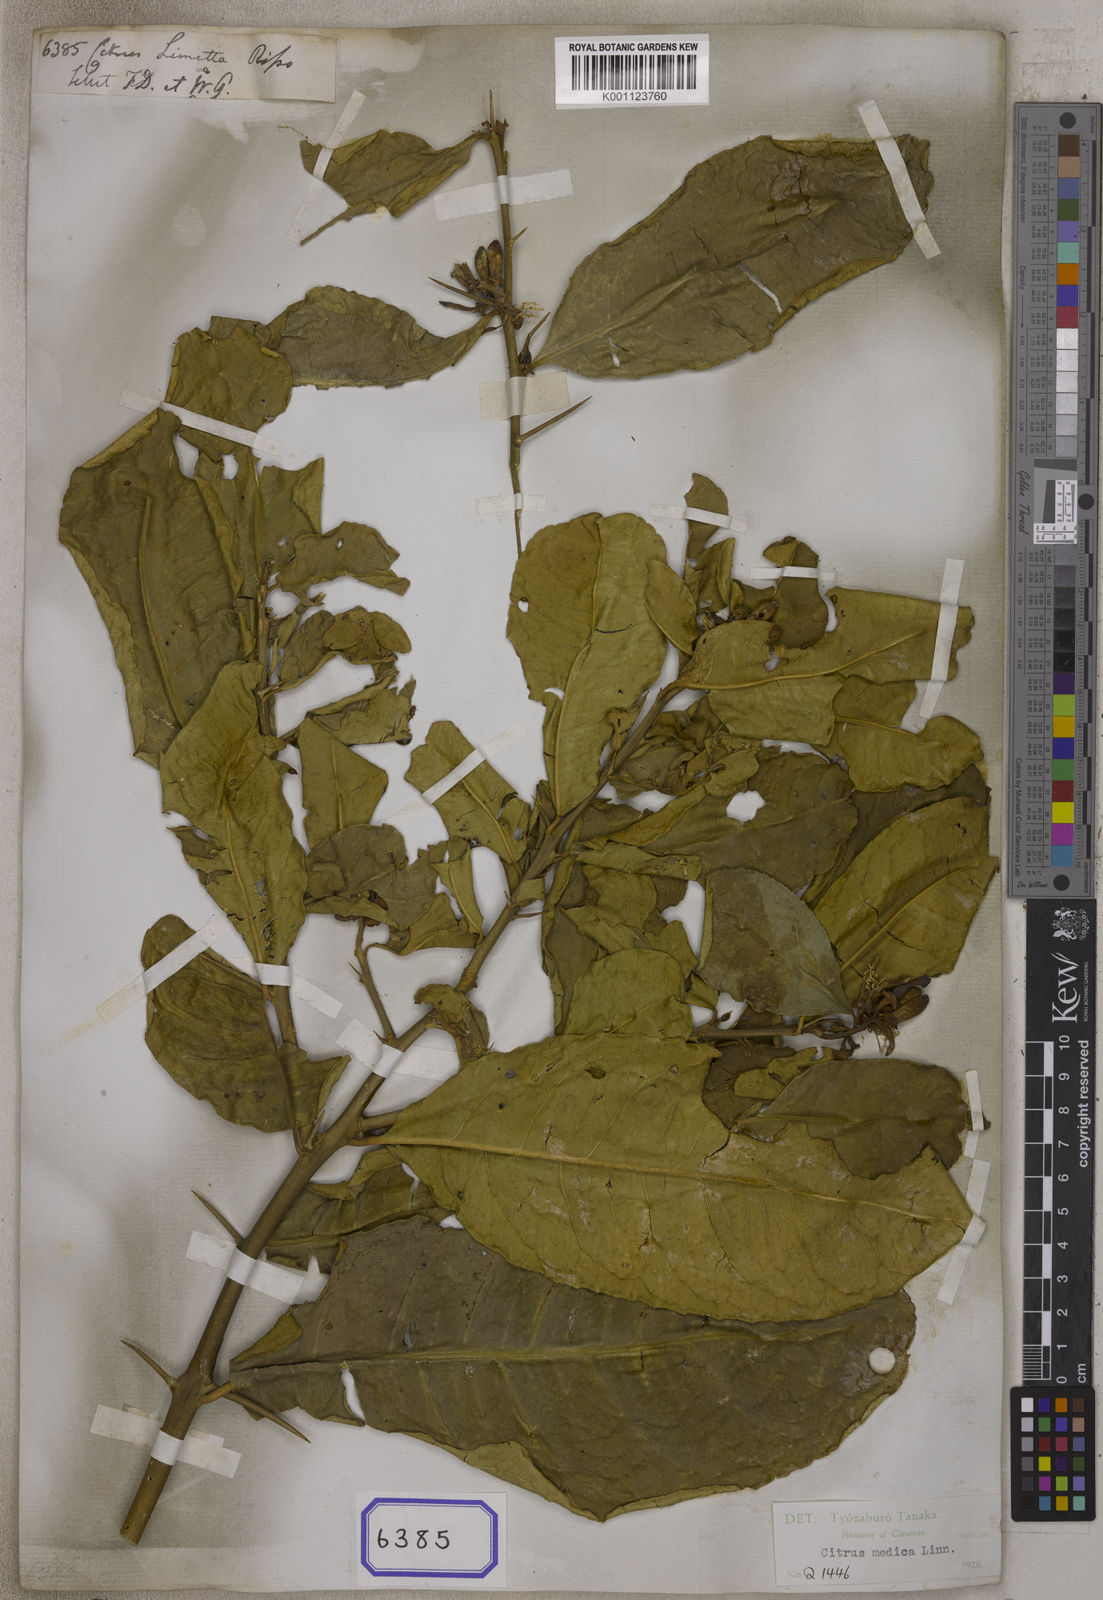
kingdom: Plantae
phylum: Tracheophyta
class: Magnoliopsida
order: Sapindales
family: Rutaceae
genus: Citrus
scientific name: Citrus
